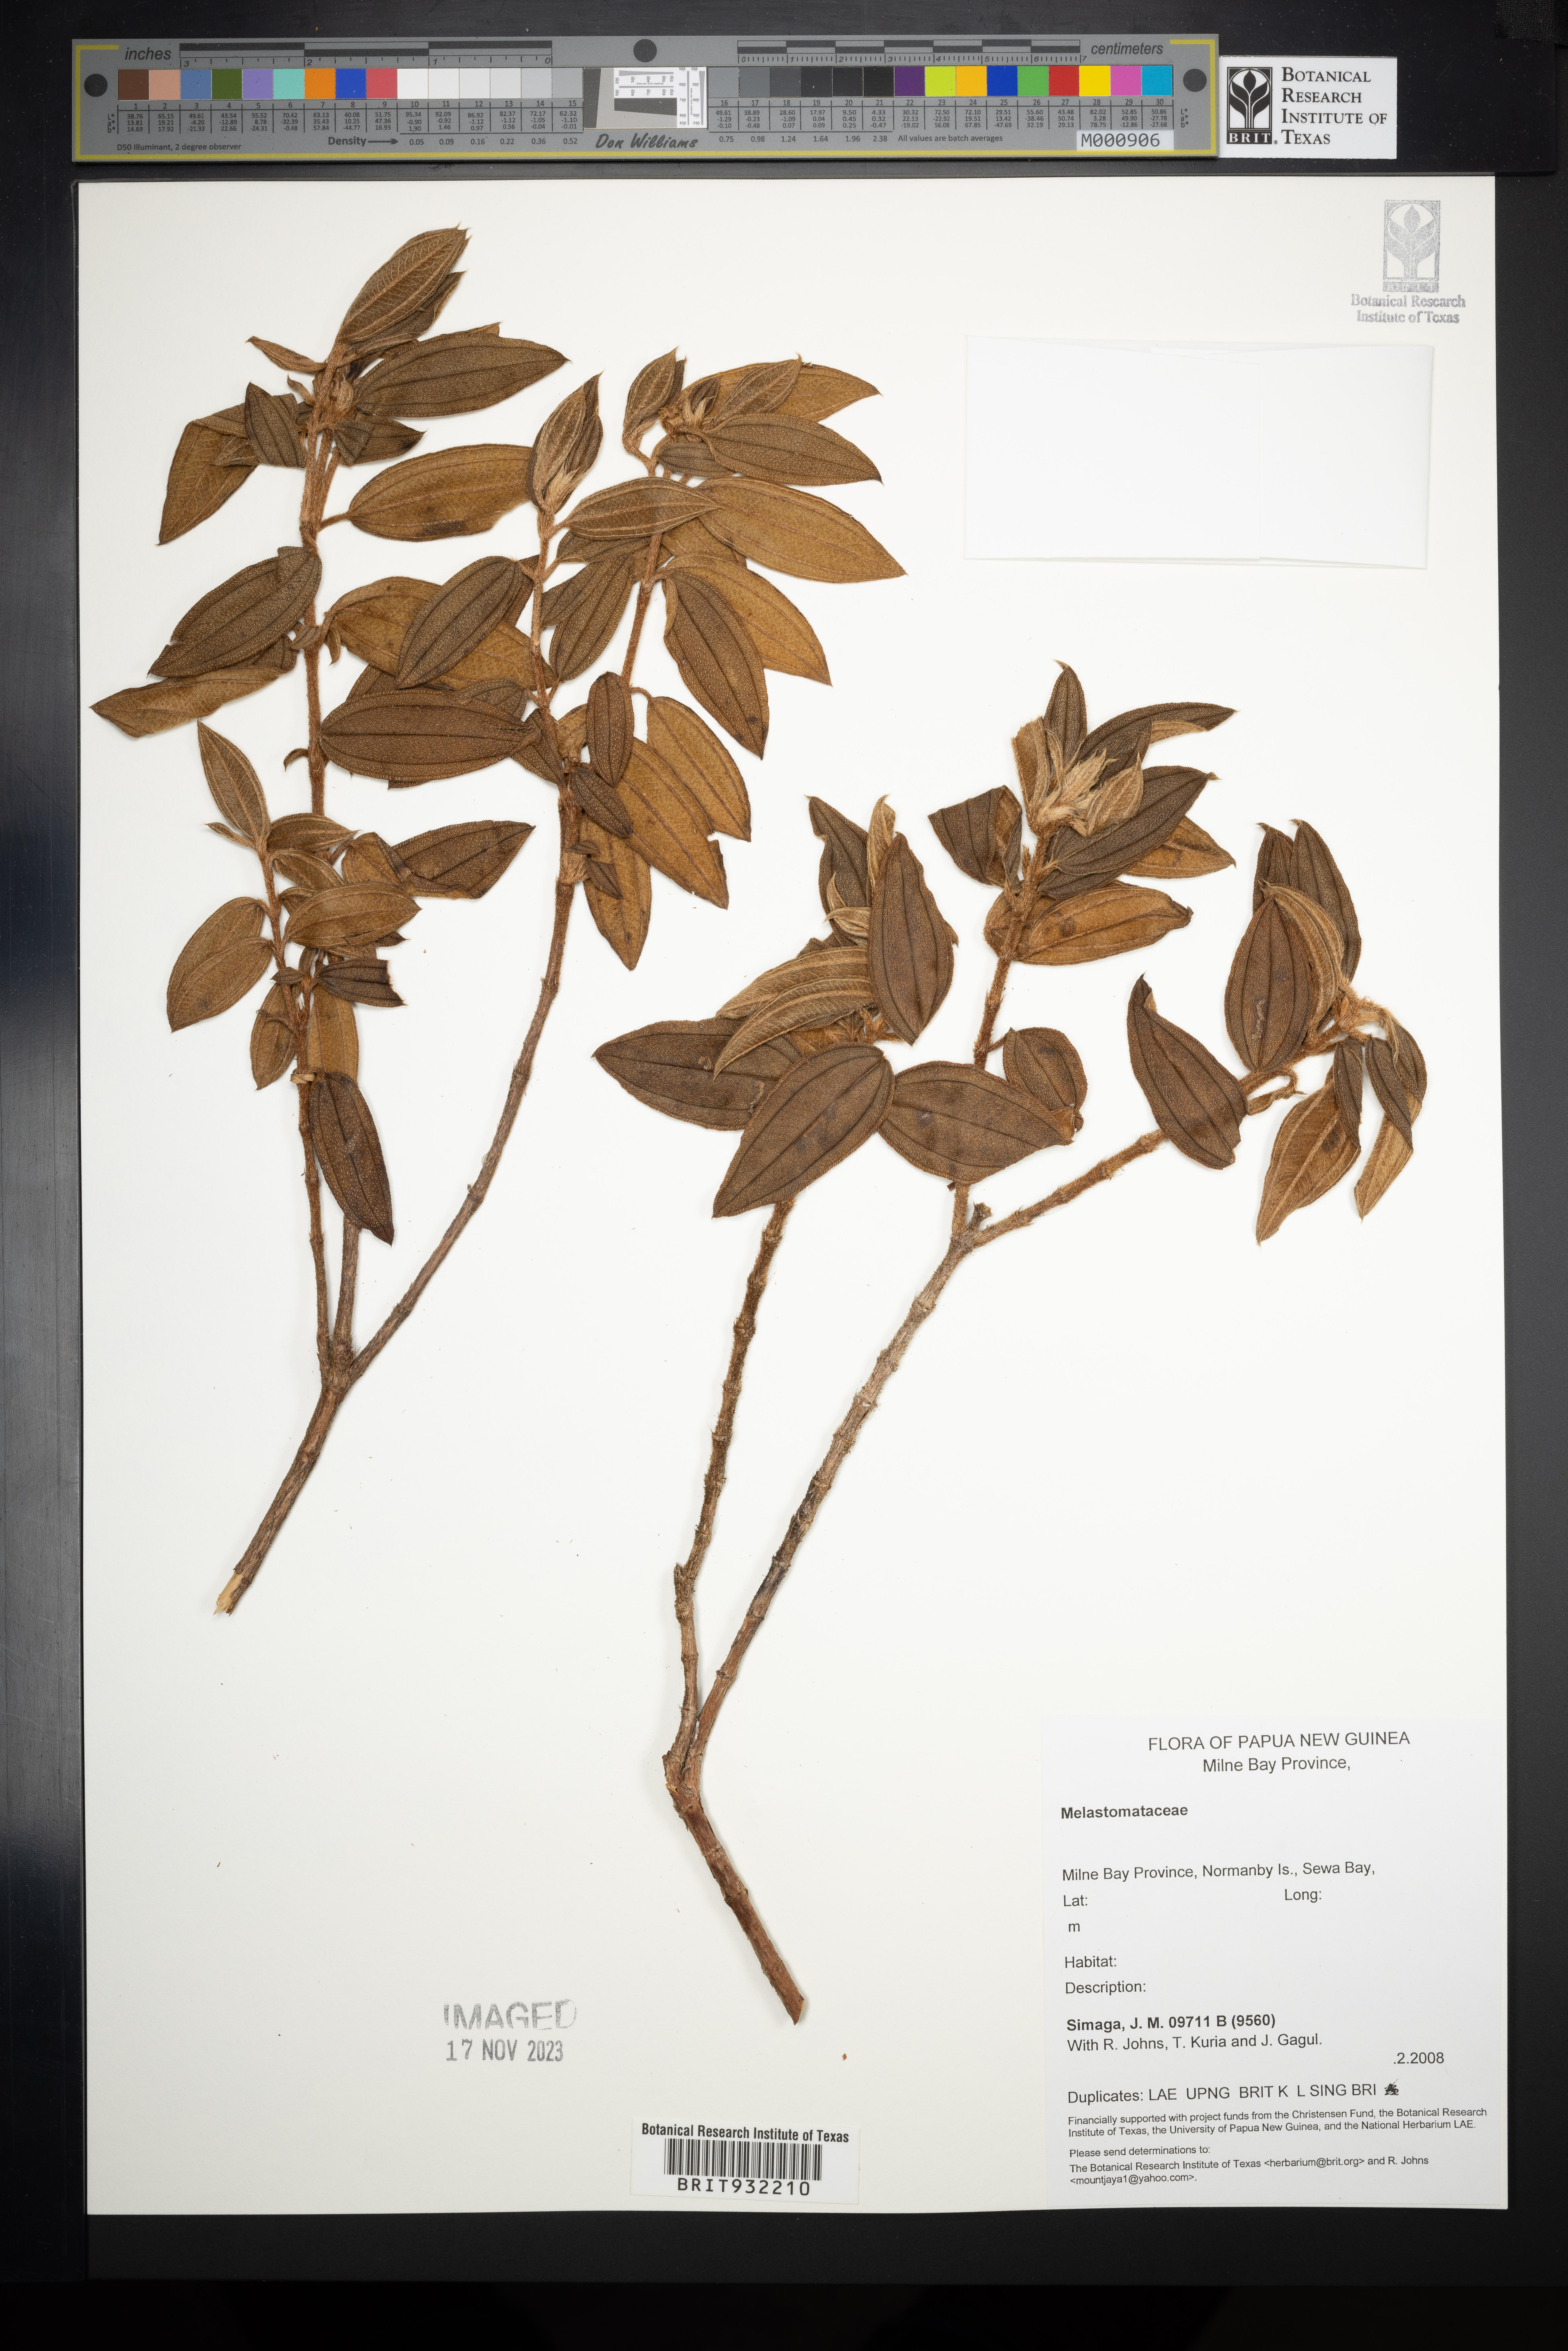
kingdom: Plantae
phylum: Tracheophyta
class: Magnoliopsida
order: Myrtales
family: Melastomataceae
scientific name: Melastomataceae
